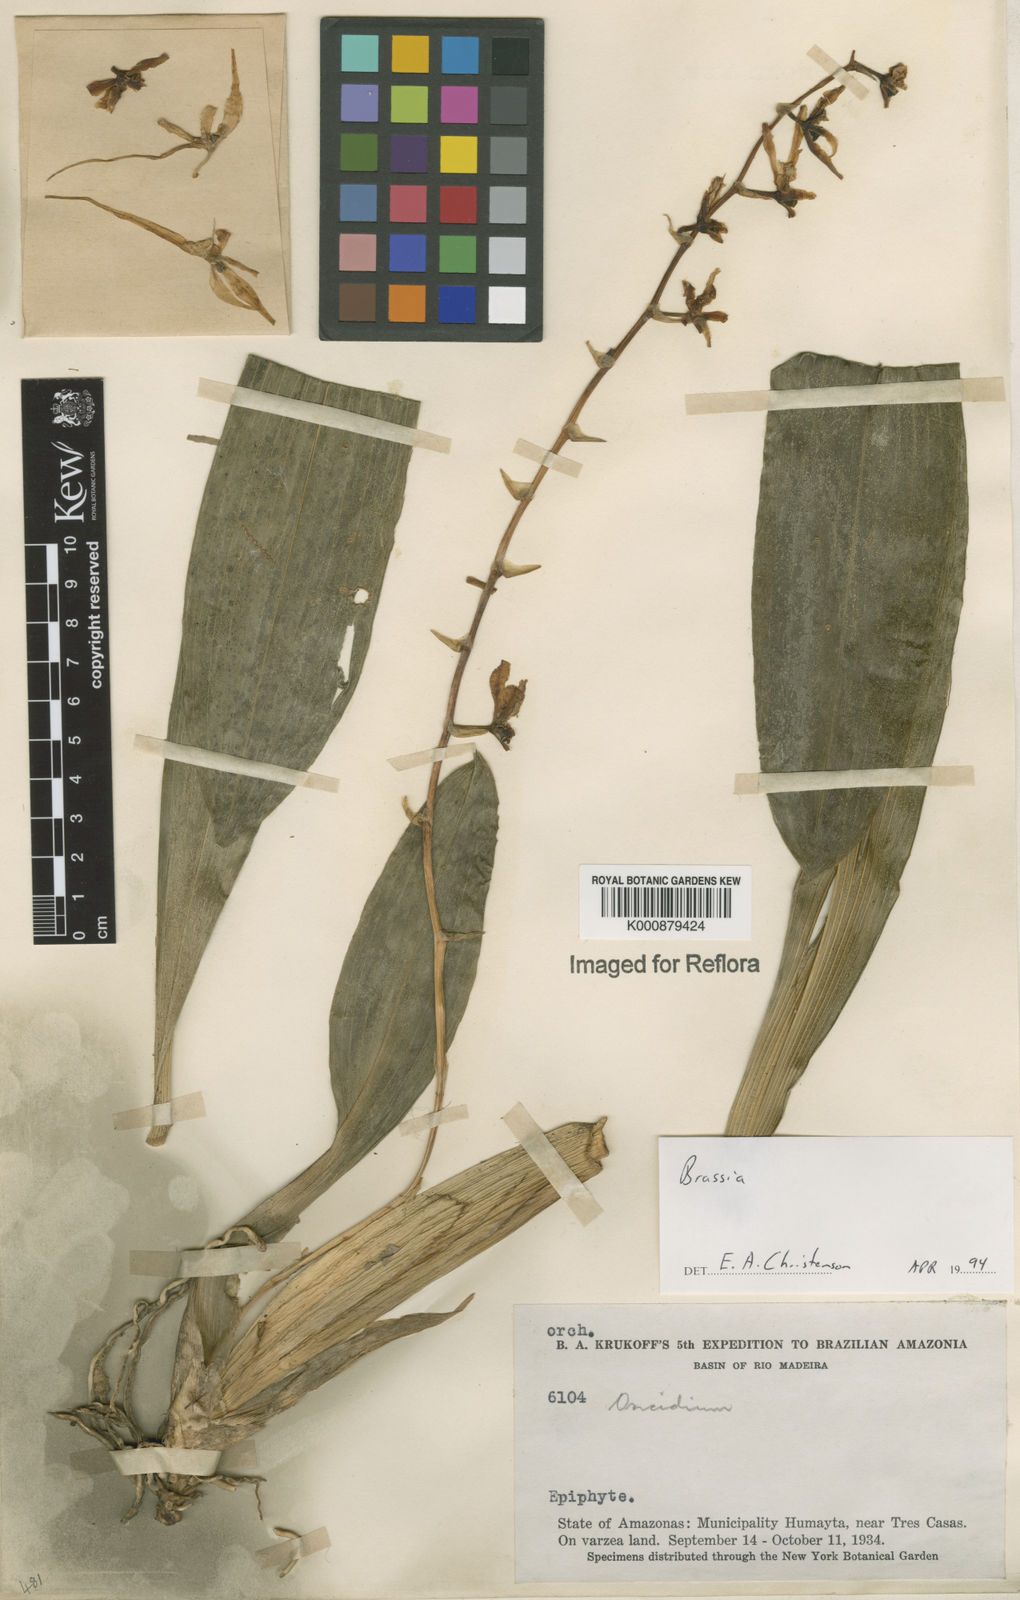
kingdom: Plantae
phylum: Tracheophyta
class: Liliopsida
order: Asparagales
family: Orchidaceae
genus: Brassia
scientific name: Brassia
